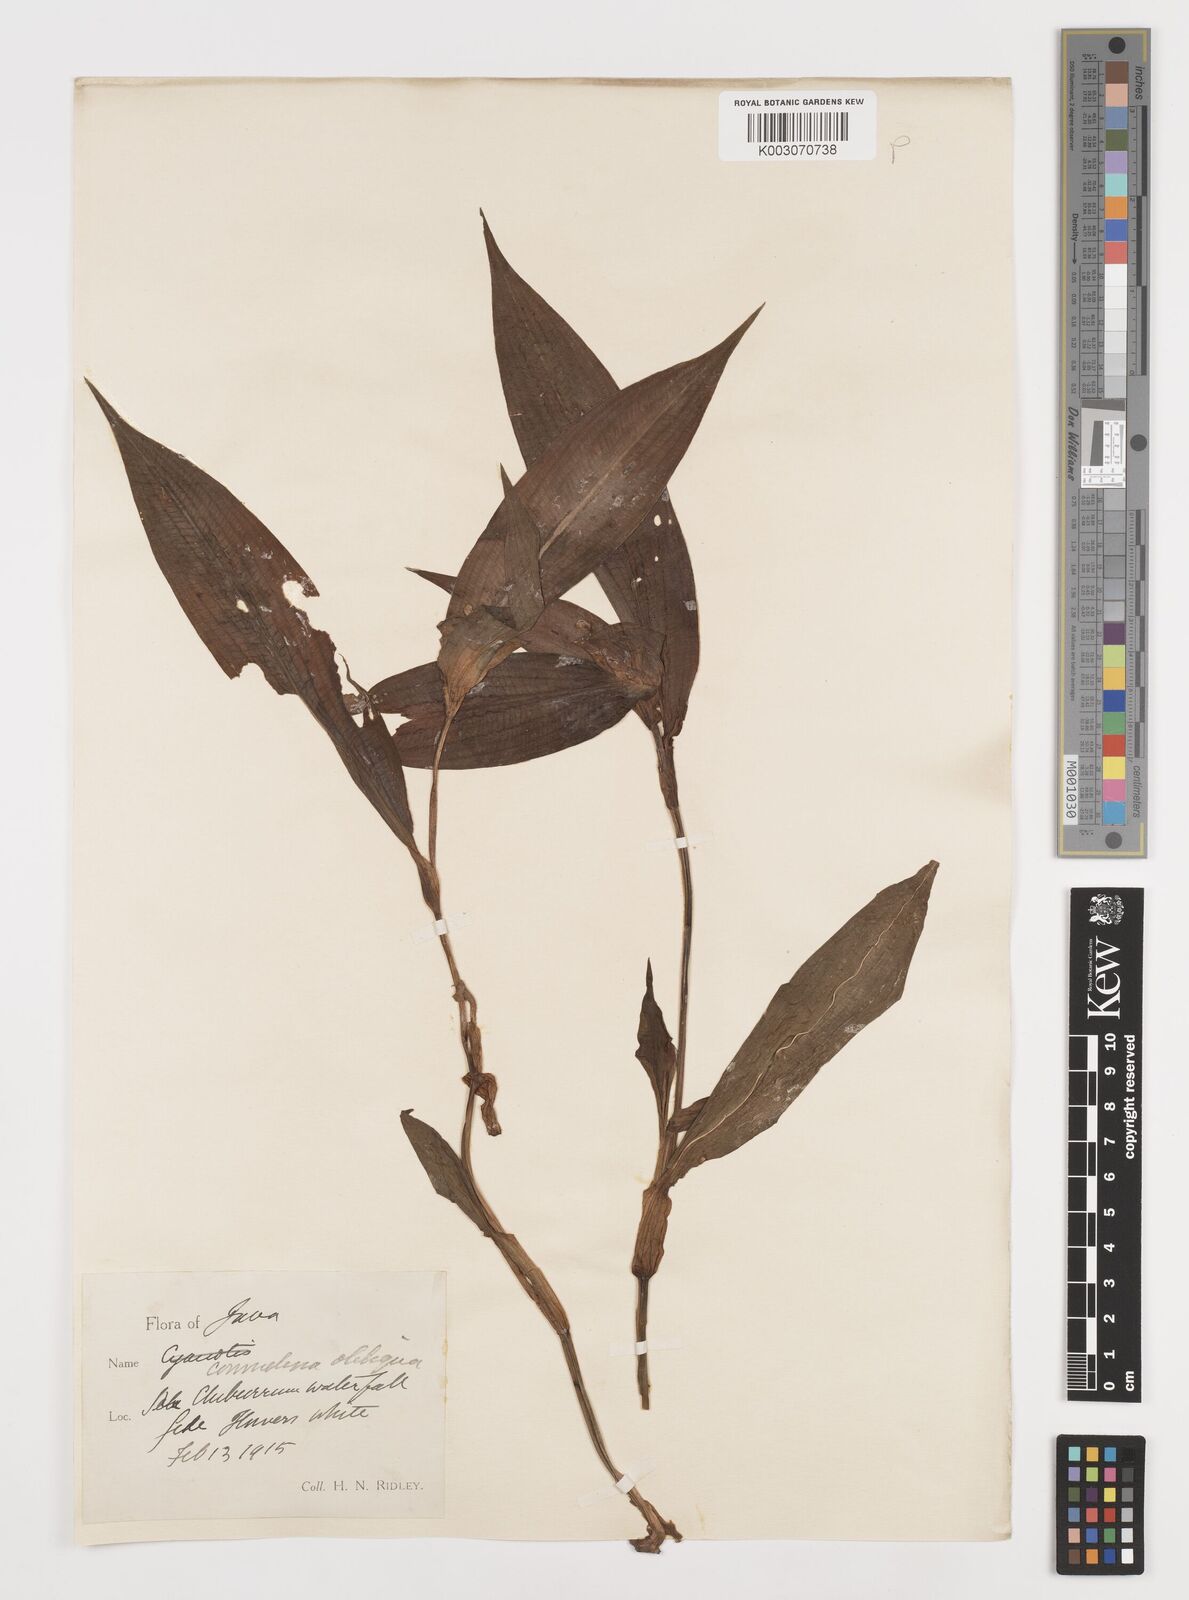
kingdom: Plantae
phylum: Tracheophyta
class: Liliopsida
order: Commelinales
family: Commelinaceae
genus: Commelina
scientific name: Commelina paludosa
